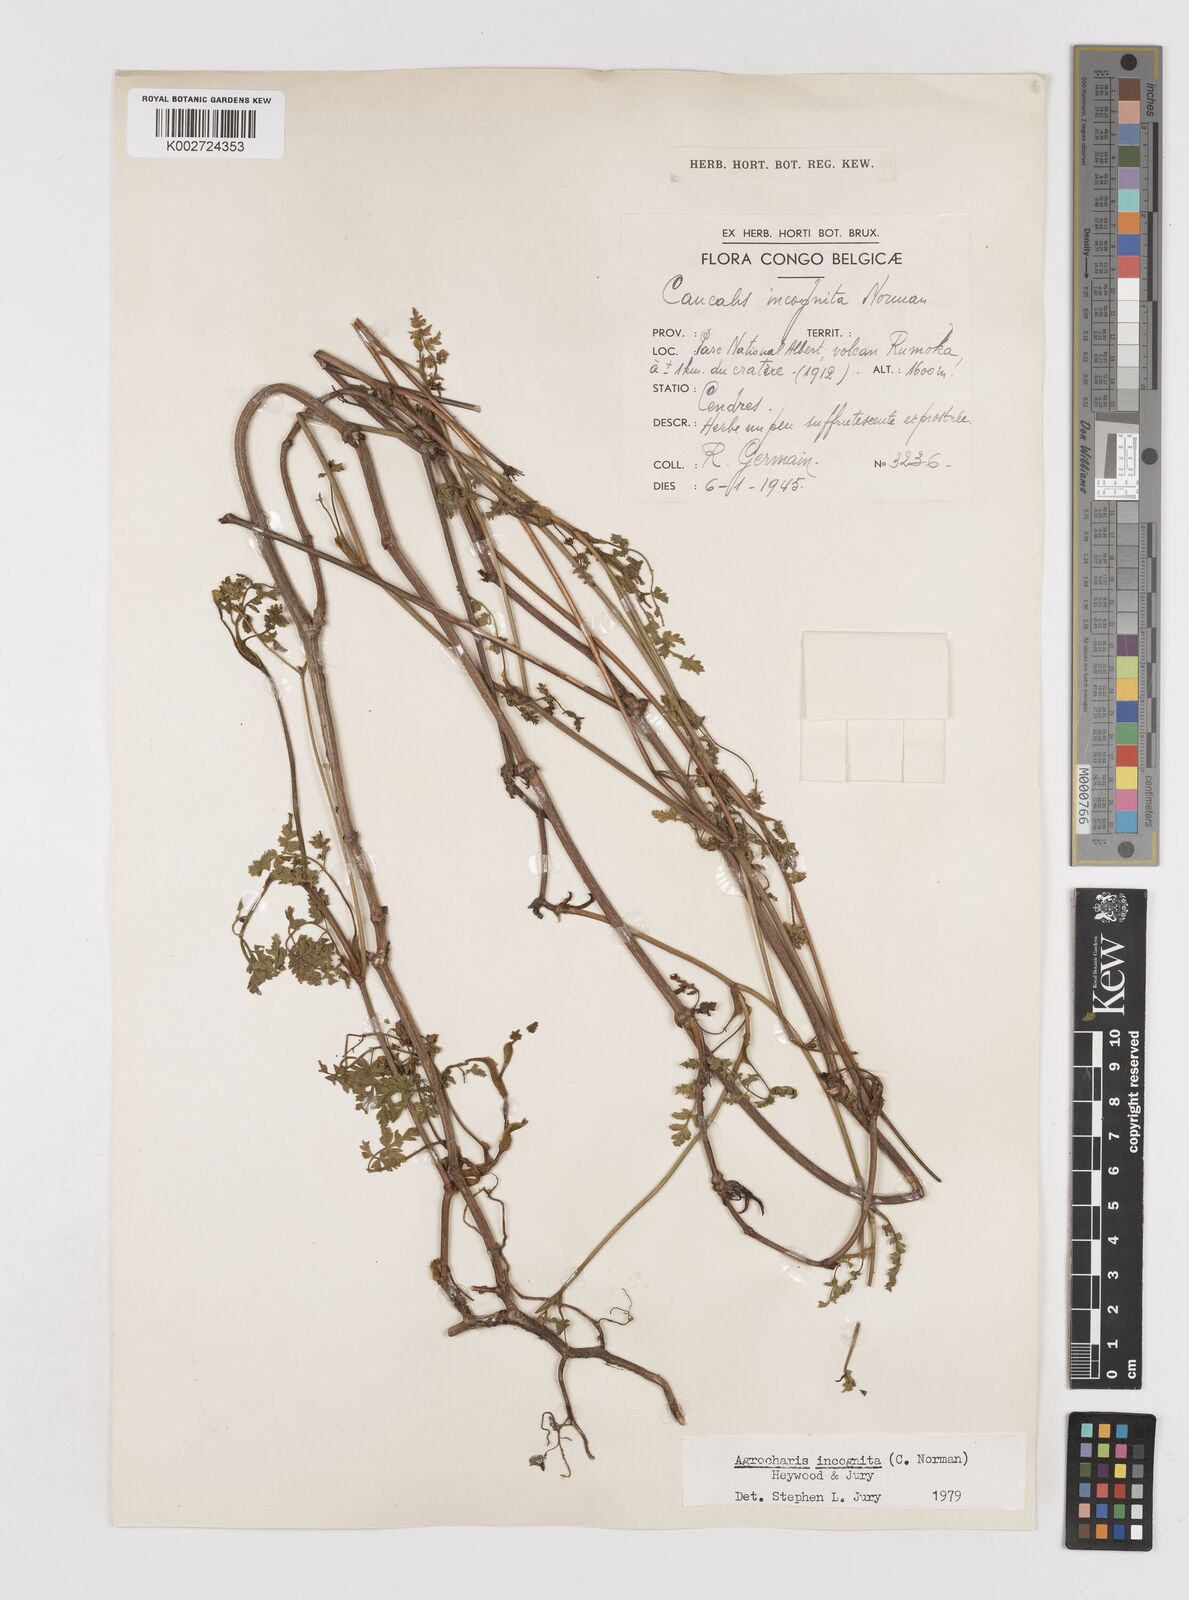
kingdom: Plantae
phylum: Tracheophyta
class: Magnoliopsida
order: Apiales
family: Apiaceae
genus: Daucus
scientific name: Daucus incognitus
